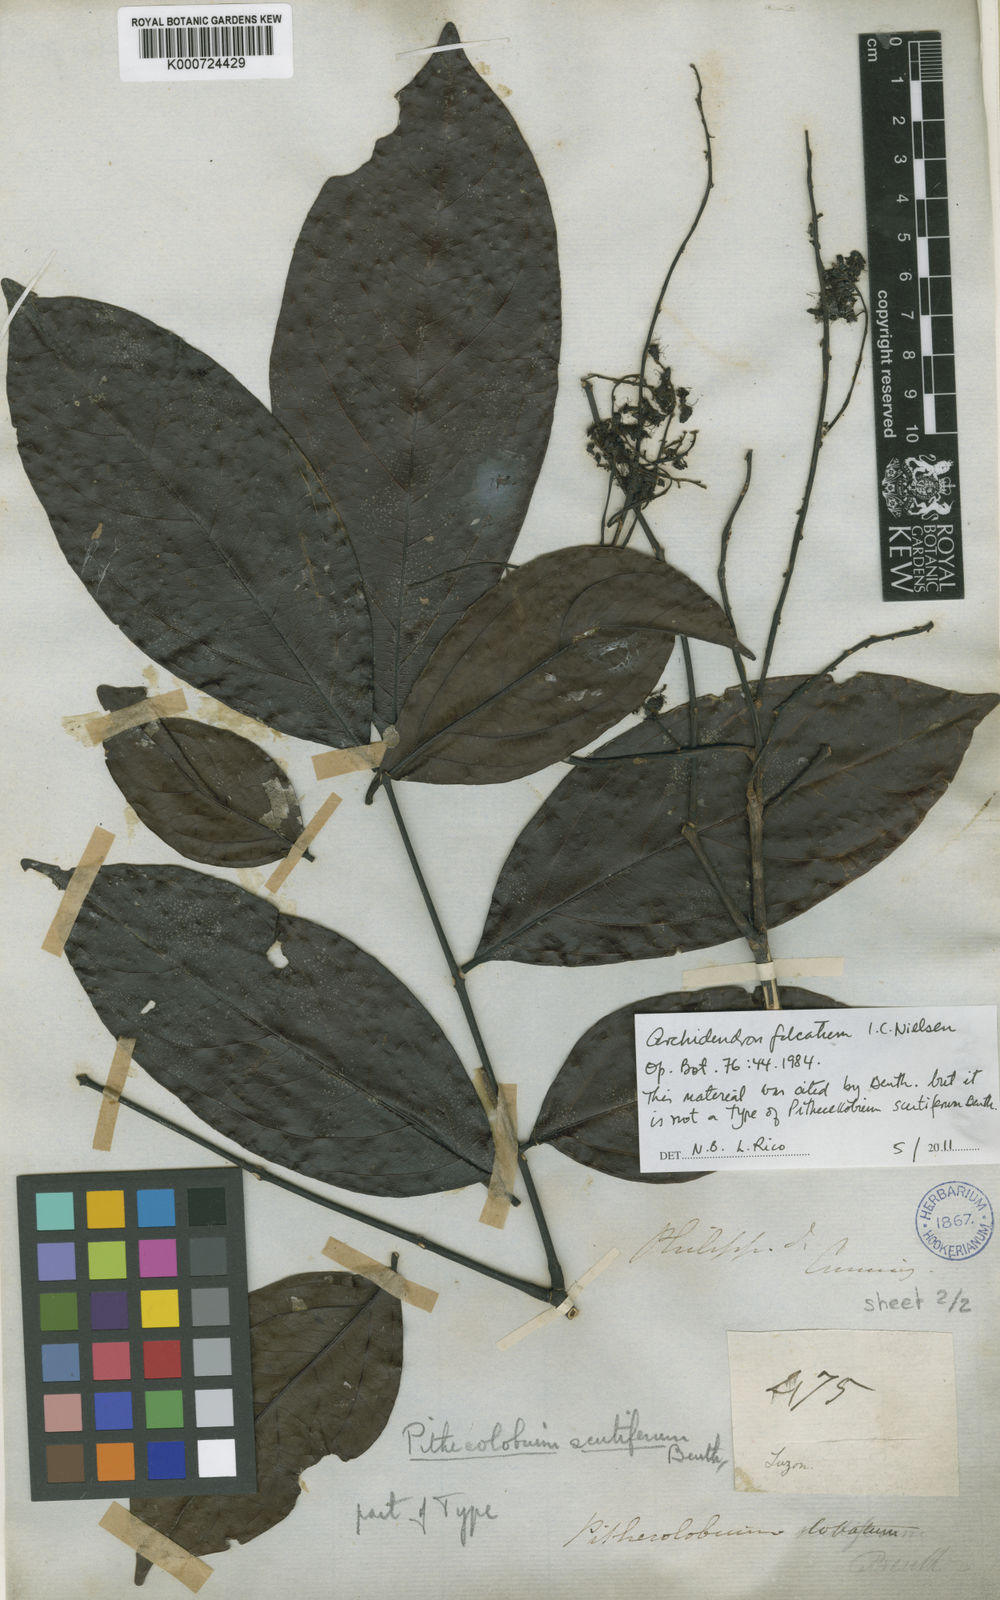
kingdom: Plantae
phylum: Tracheophyta
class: Magnoliopsida
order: Fabales
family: Fabaceae
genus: Archidendron
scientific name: Archidendron scutiferum
